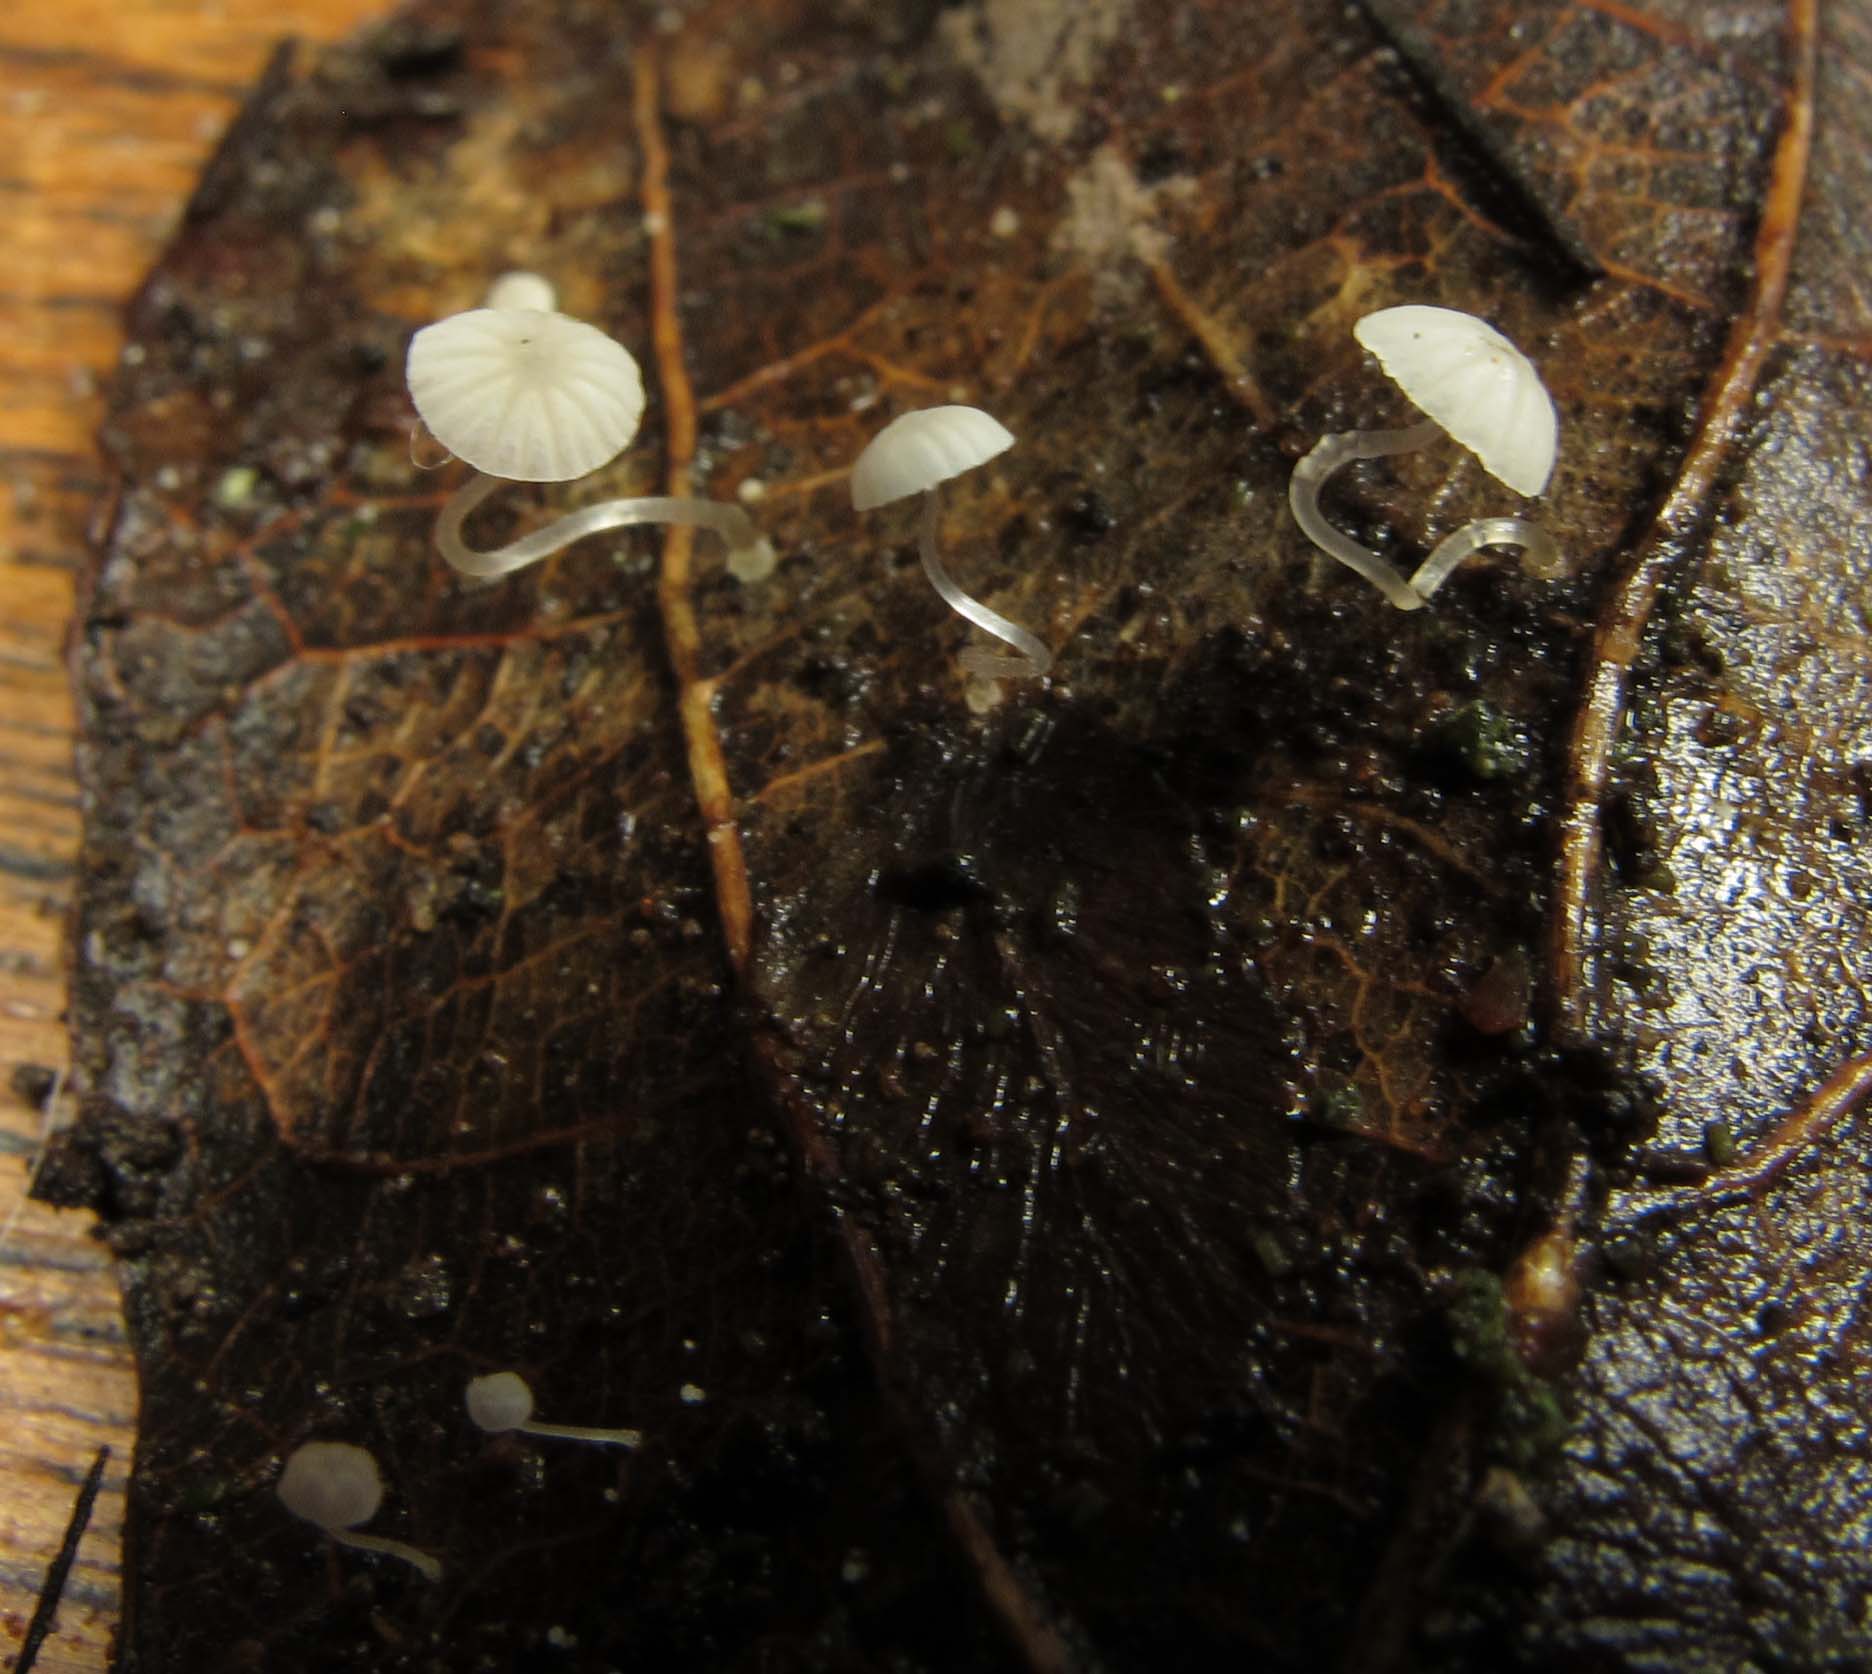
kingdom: Fungi
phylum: Basidiomycota
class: Agaricomycetes
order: Agaricales
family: Mycenaceae
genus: Mycena
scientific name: Mycena mucor
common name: frynseskivet huesvamp
